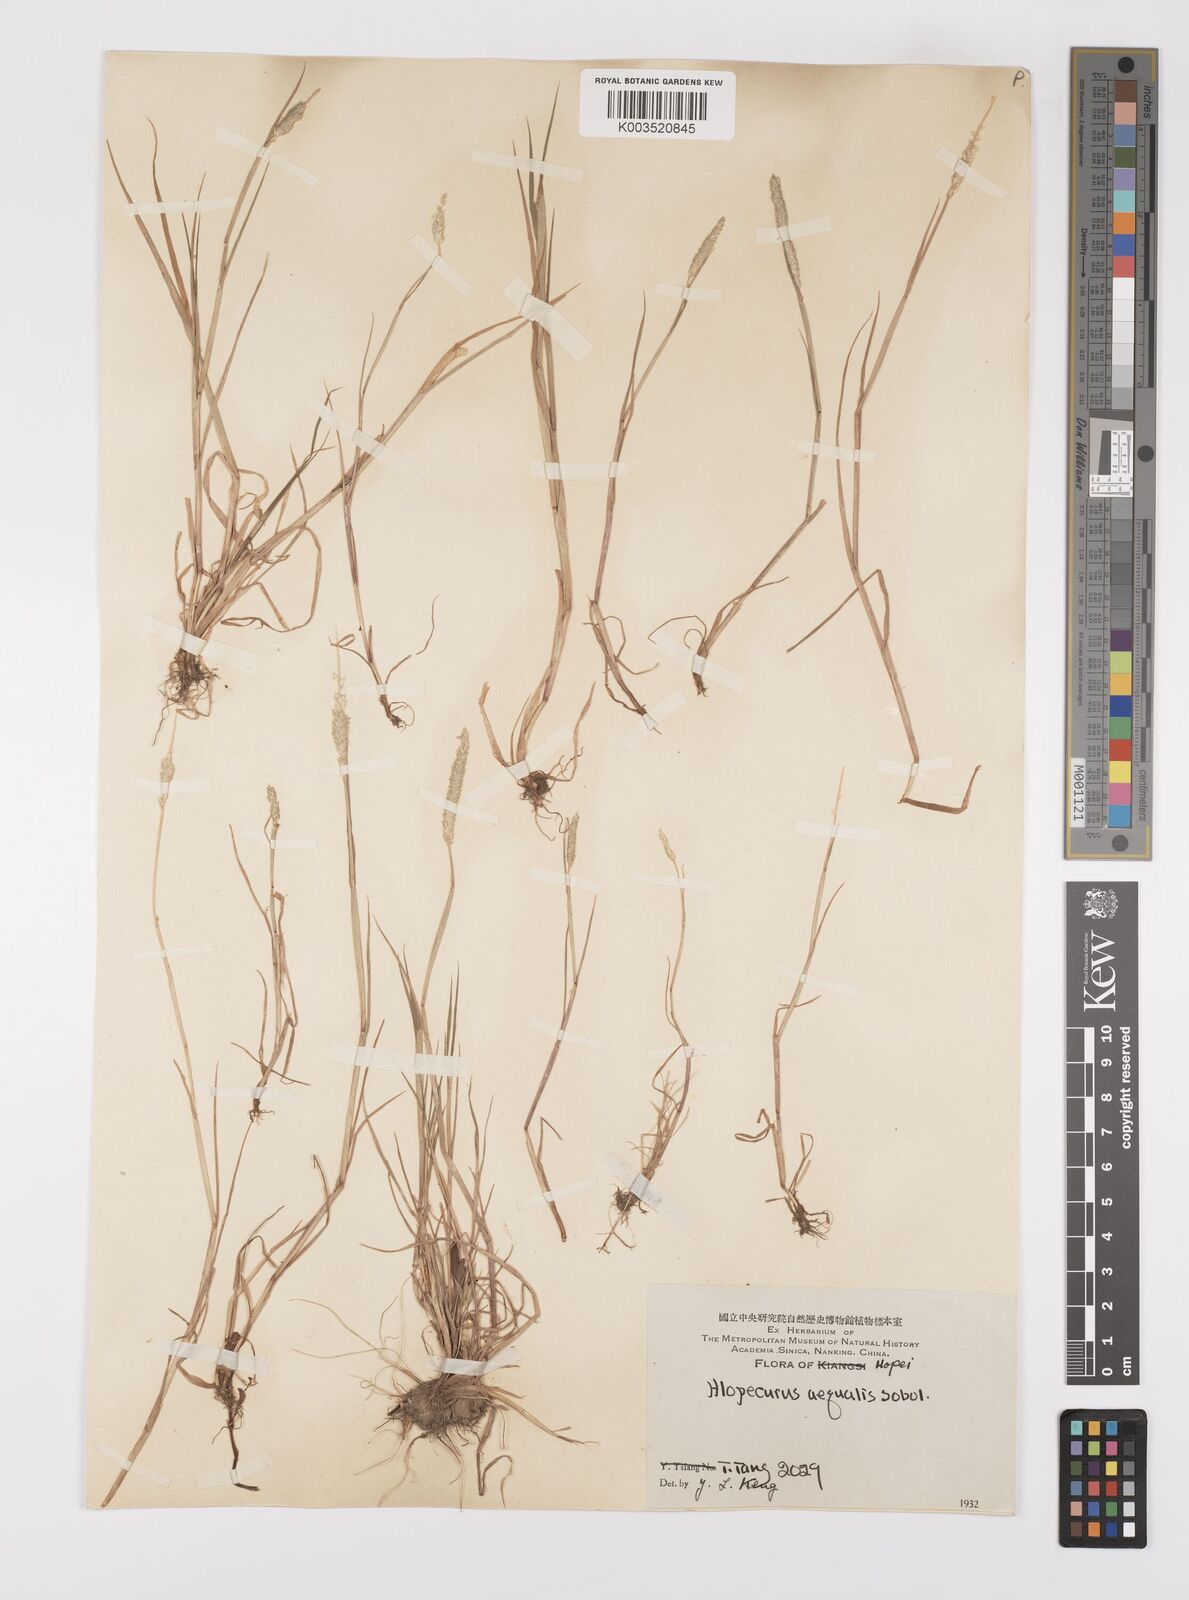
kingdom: Plantae
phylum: Tracheophyta
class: Liliopsida
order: Poales
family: Poaceae
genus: Alopecurus
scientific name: Alopecurus aequalis
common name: Orange foxtail
